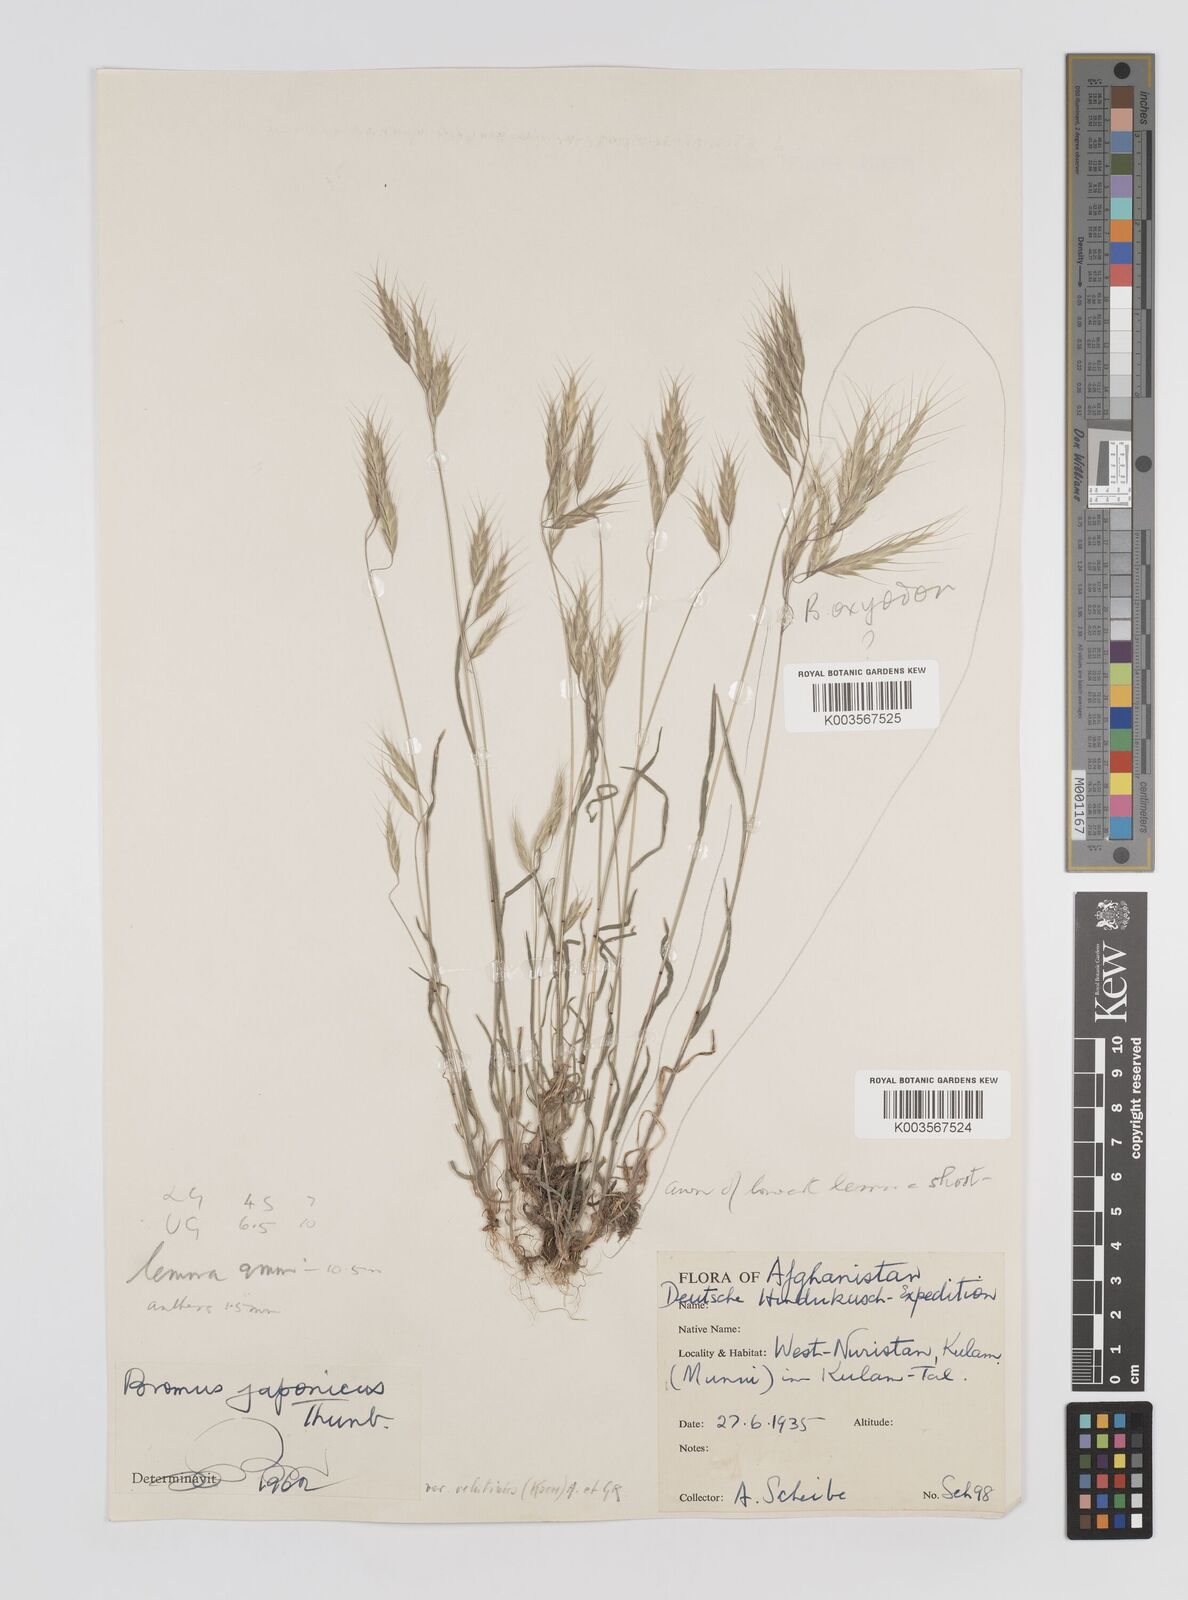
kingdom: Plantae
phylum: Tracheophyta
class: Liliopsida
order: Poales
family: Poaceae
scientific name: Poaceae
